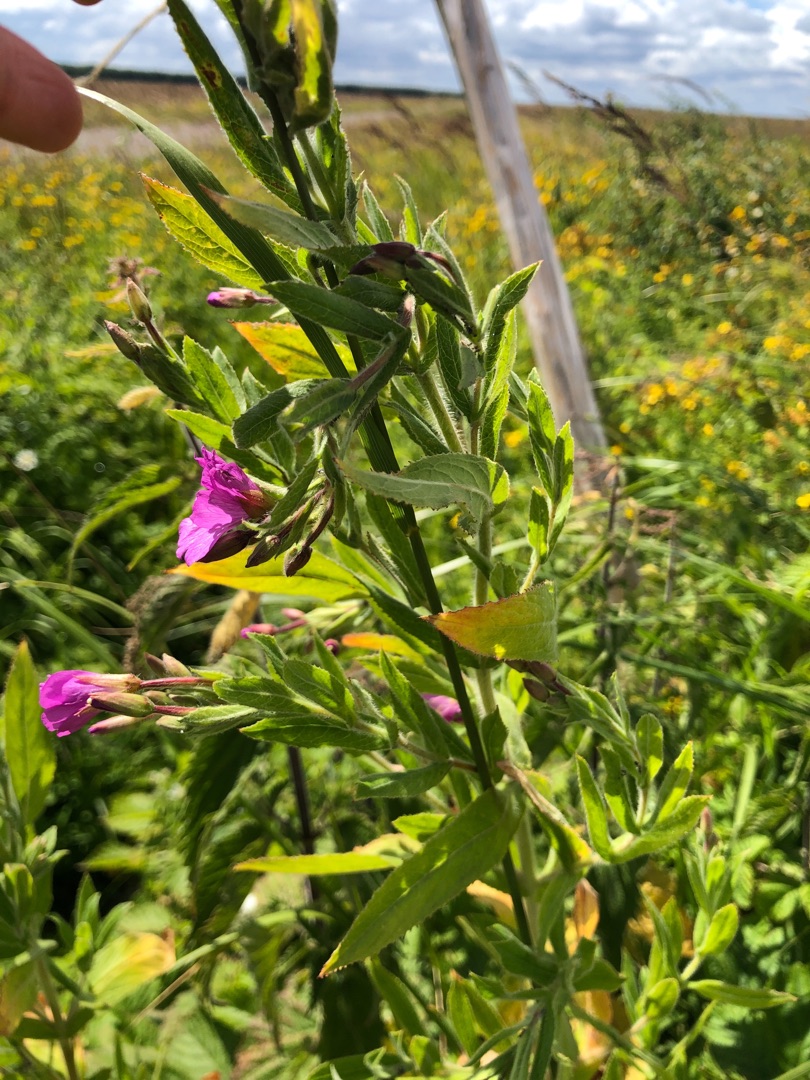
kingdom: Plantae
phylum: Tracheophyta
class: Magnoliopsida
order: Myrtales
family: Onagraceae
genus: Epilobium
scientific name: Epilobium hirsutum
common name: Lådden dueurt
